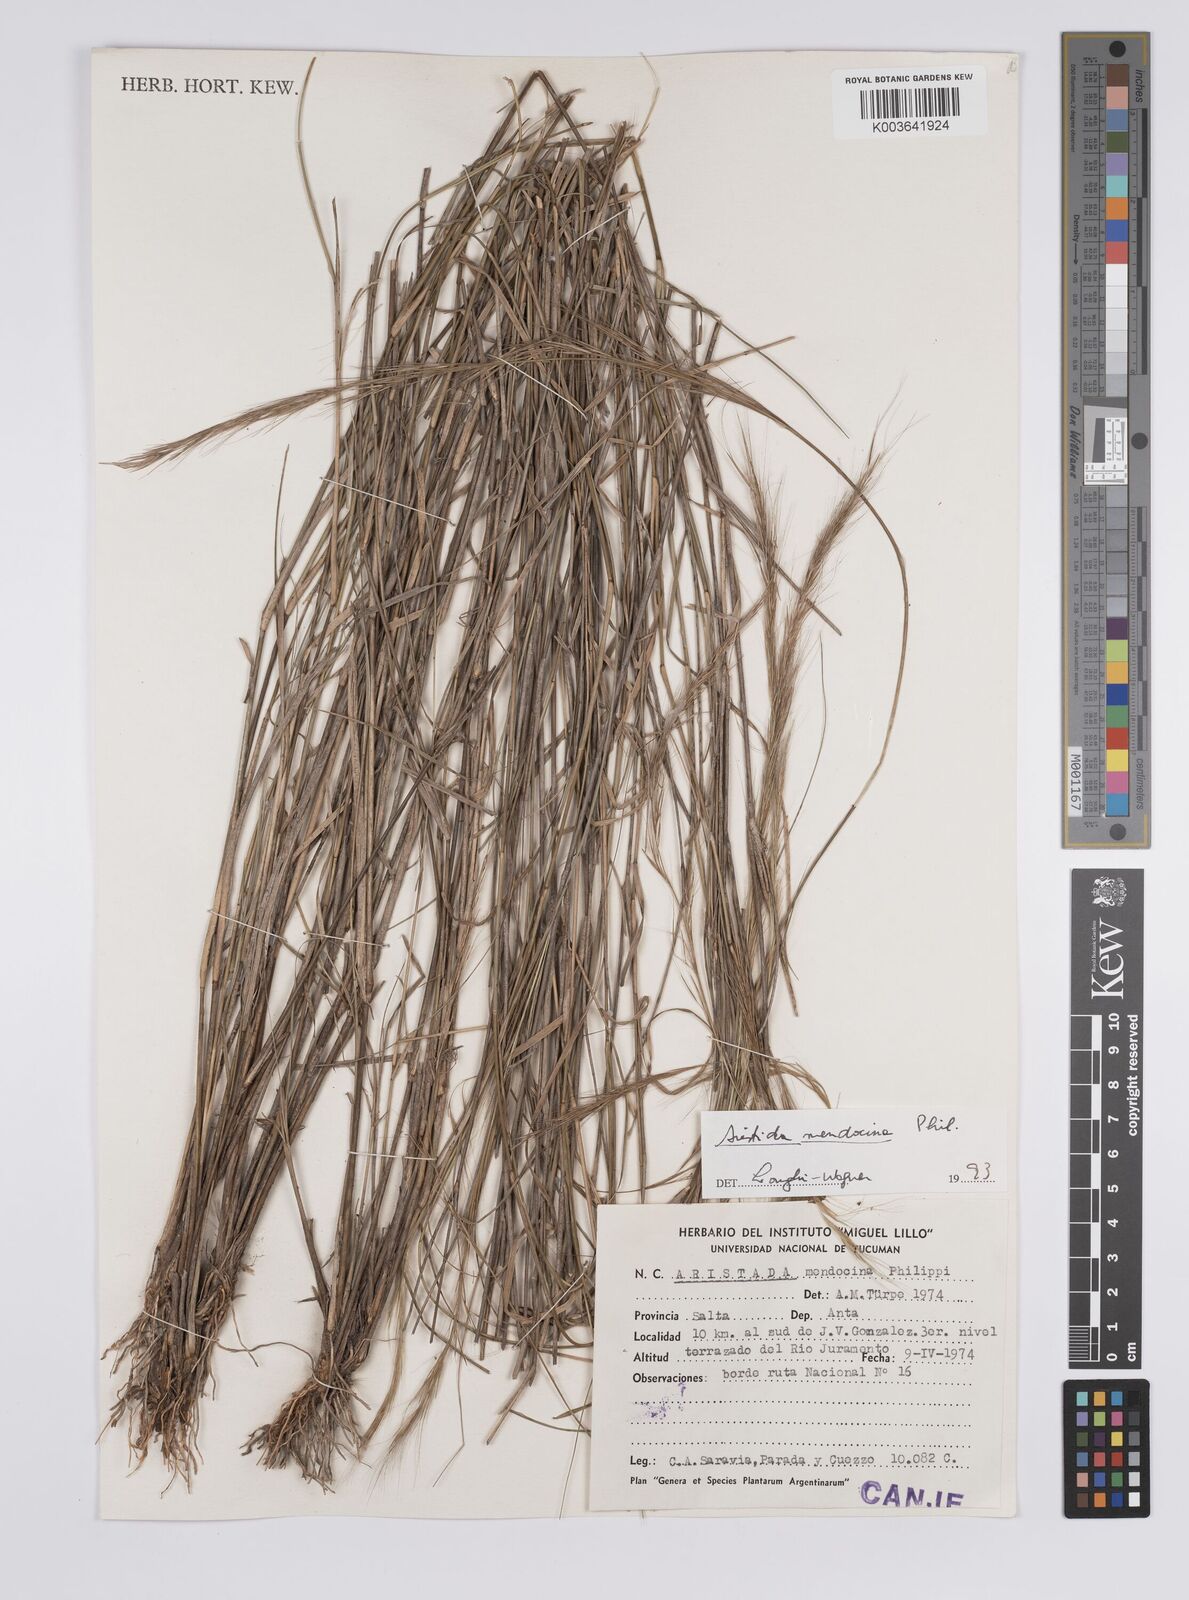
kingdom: Plantae
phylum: Tracheophyta
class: Liliopsida
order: Poales
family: Poaceae
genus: Aristida
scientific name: Aristida mendocina
